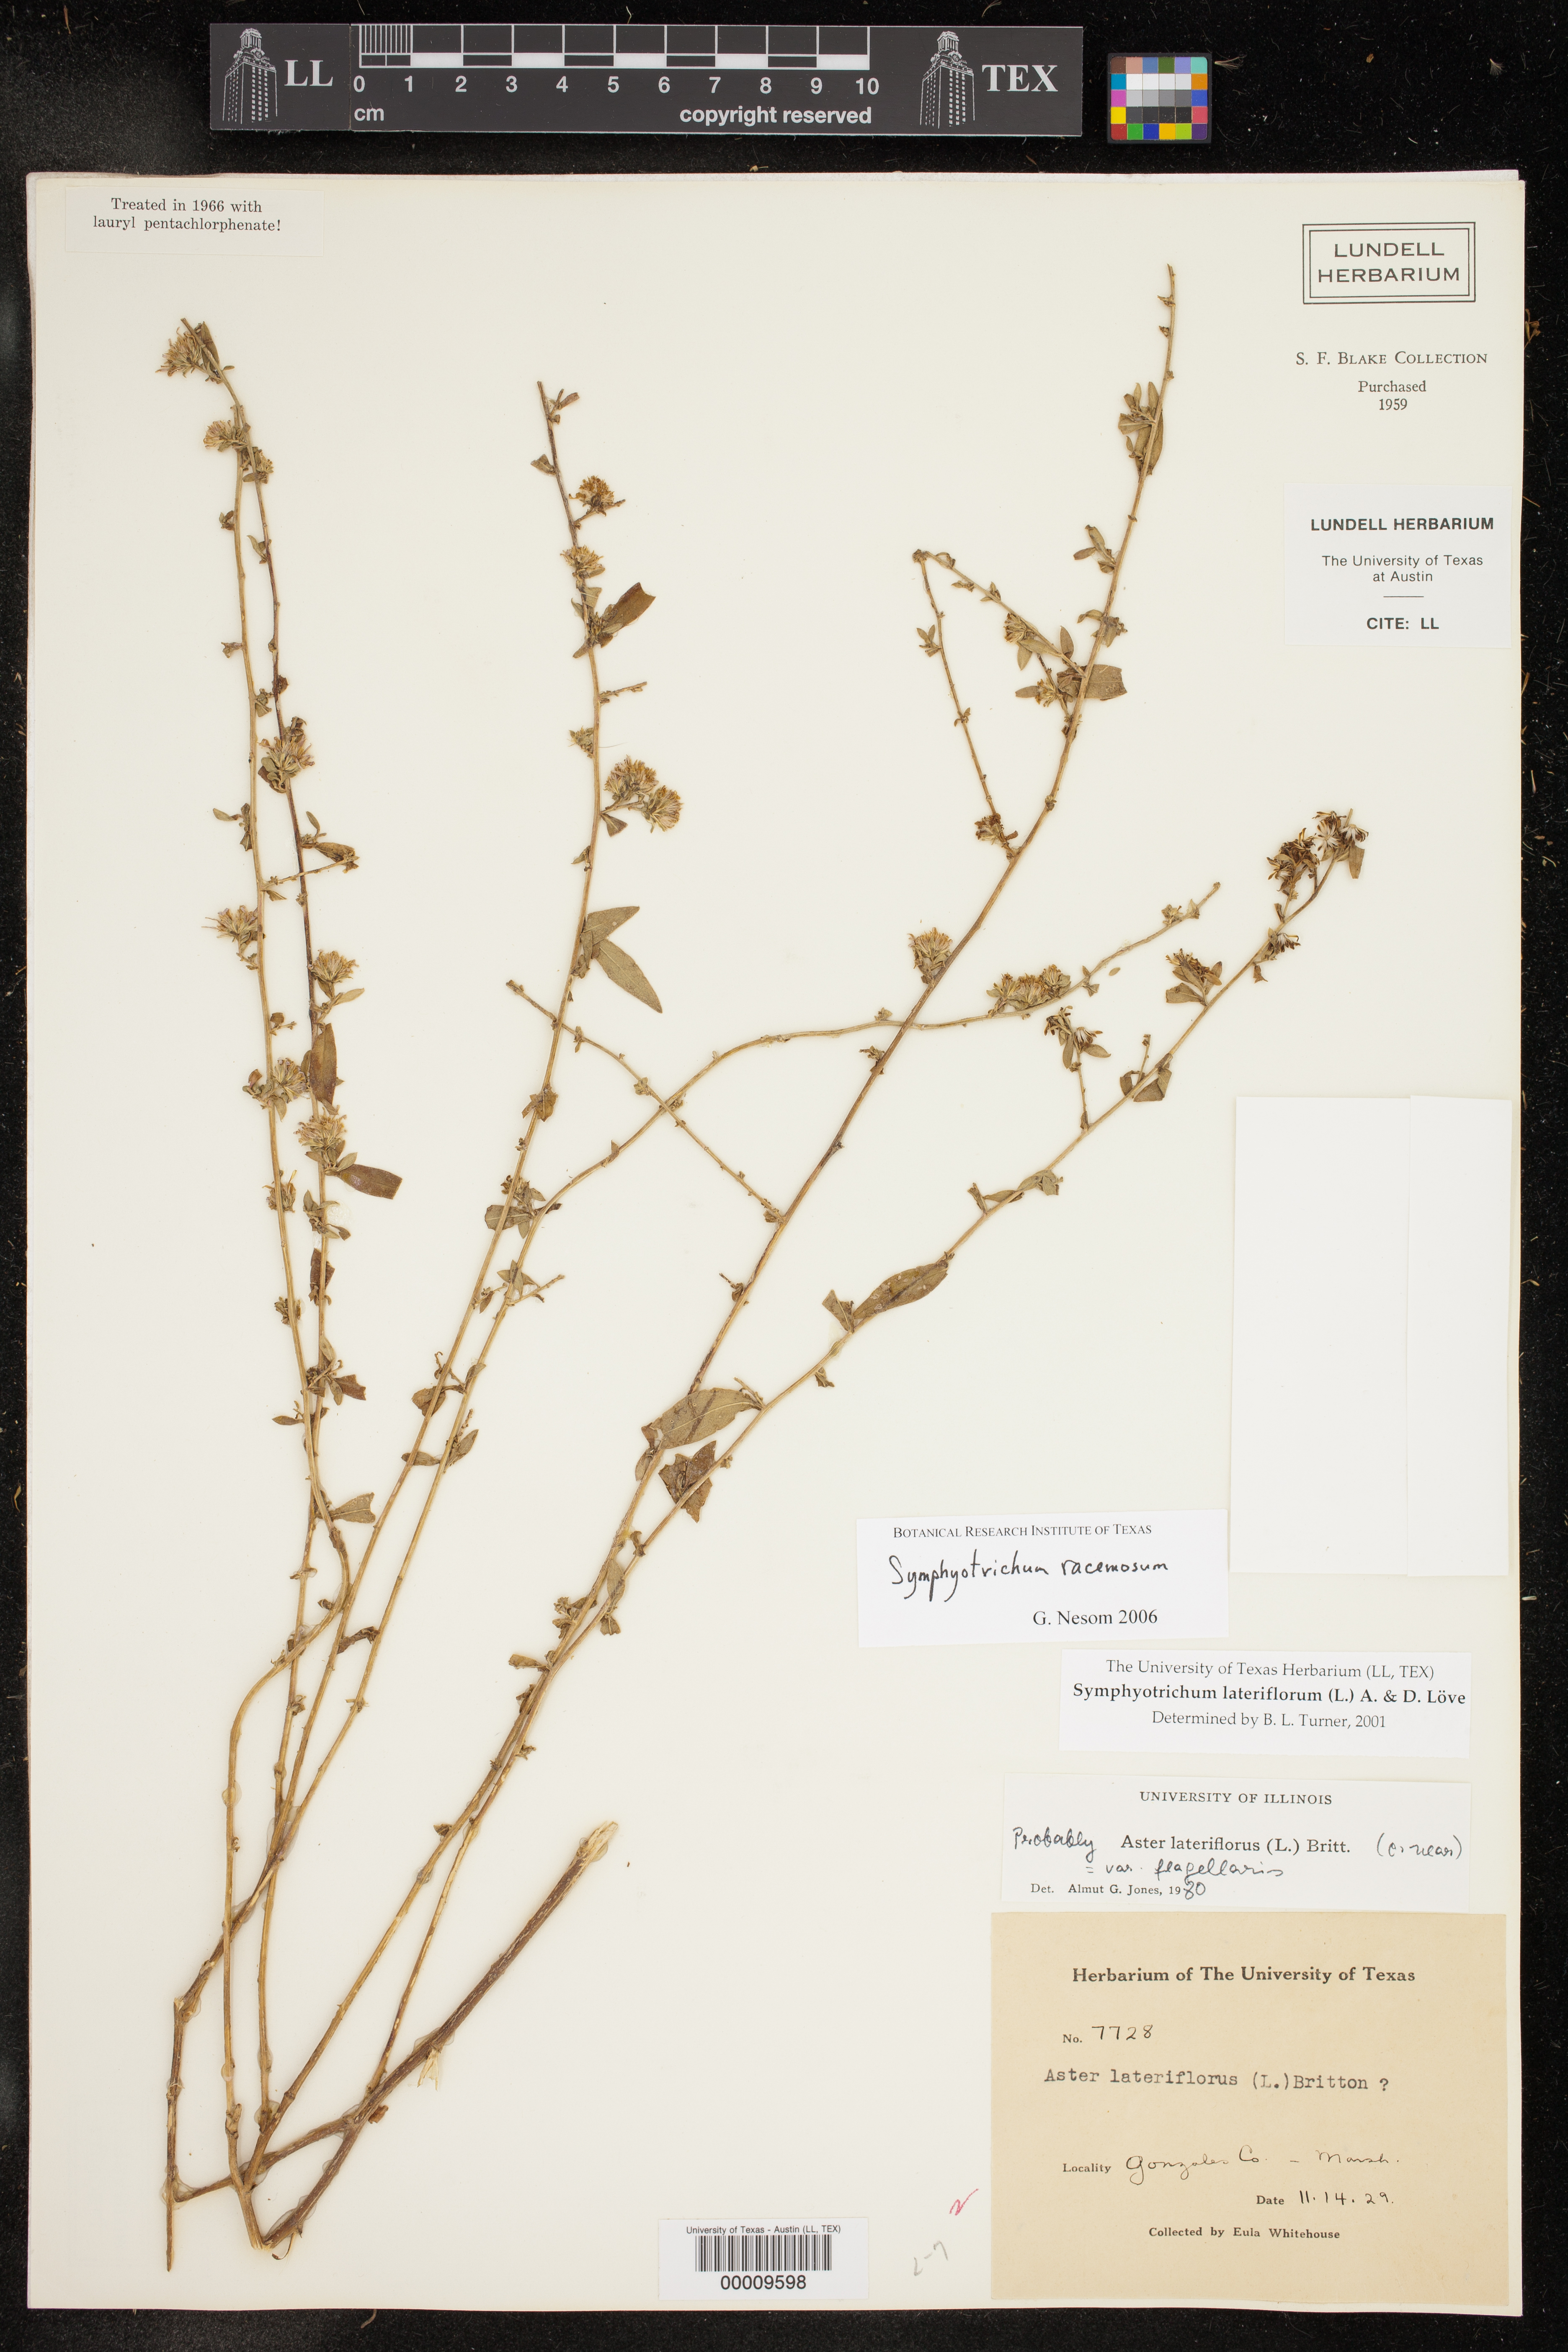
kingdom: Plantae
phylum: Tracheophyta
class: Magnoliopsida
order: Asterales
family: Asteraceae
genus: Symphyotrichum
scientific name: Symphyotrichum racemosum
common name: Small white aster
